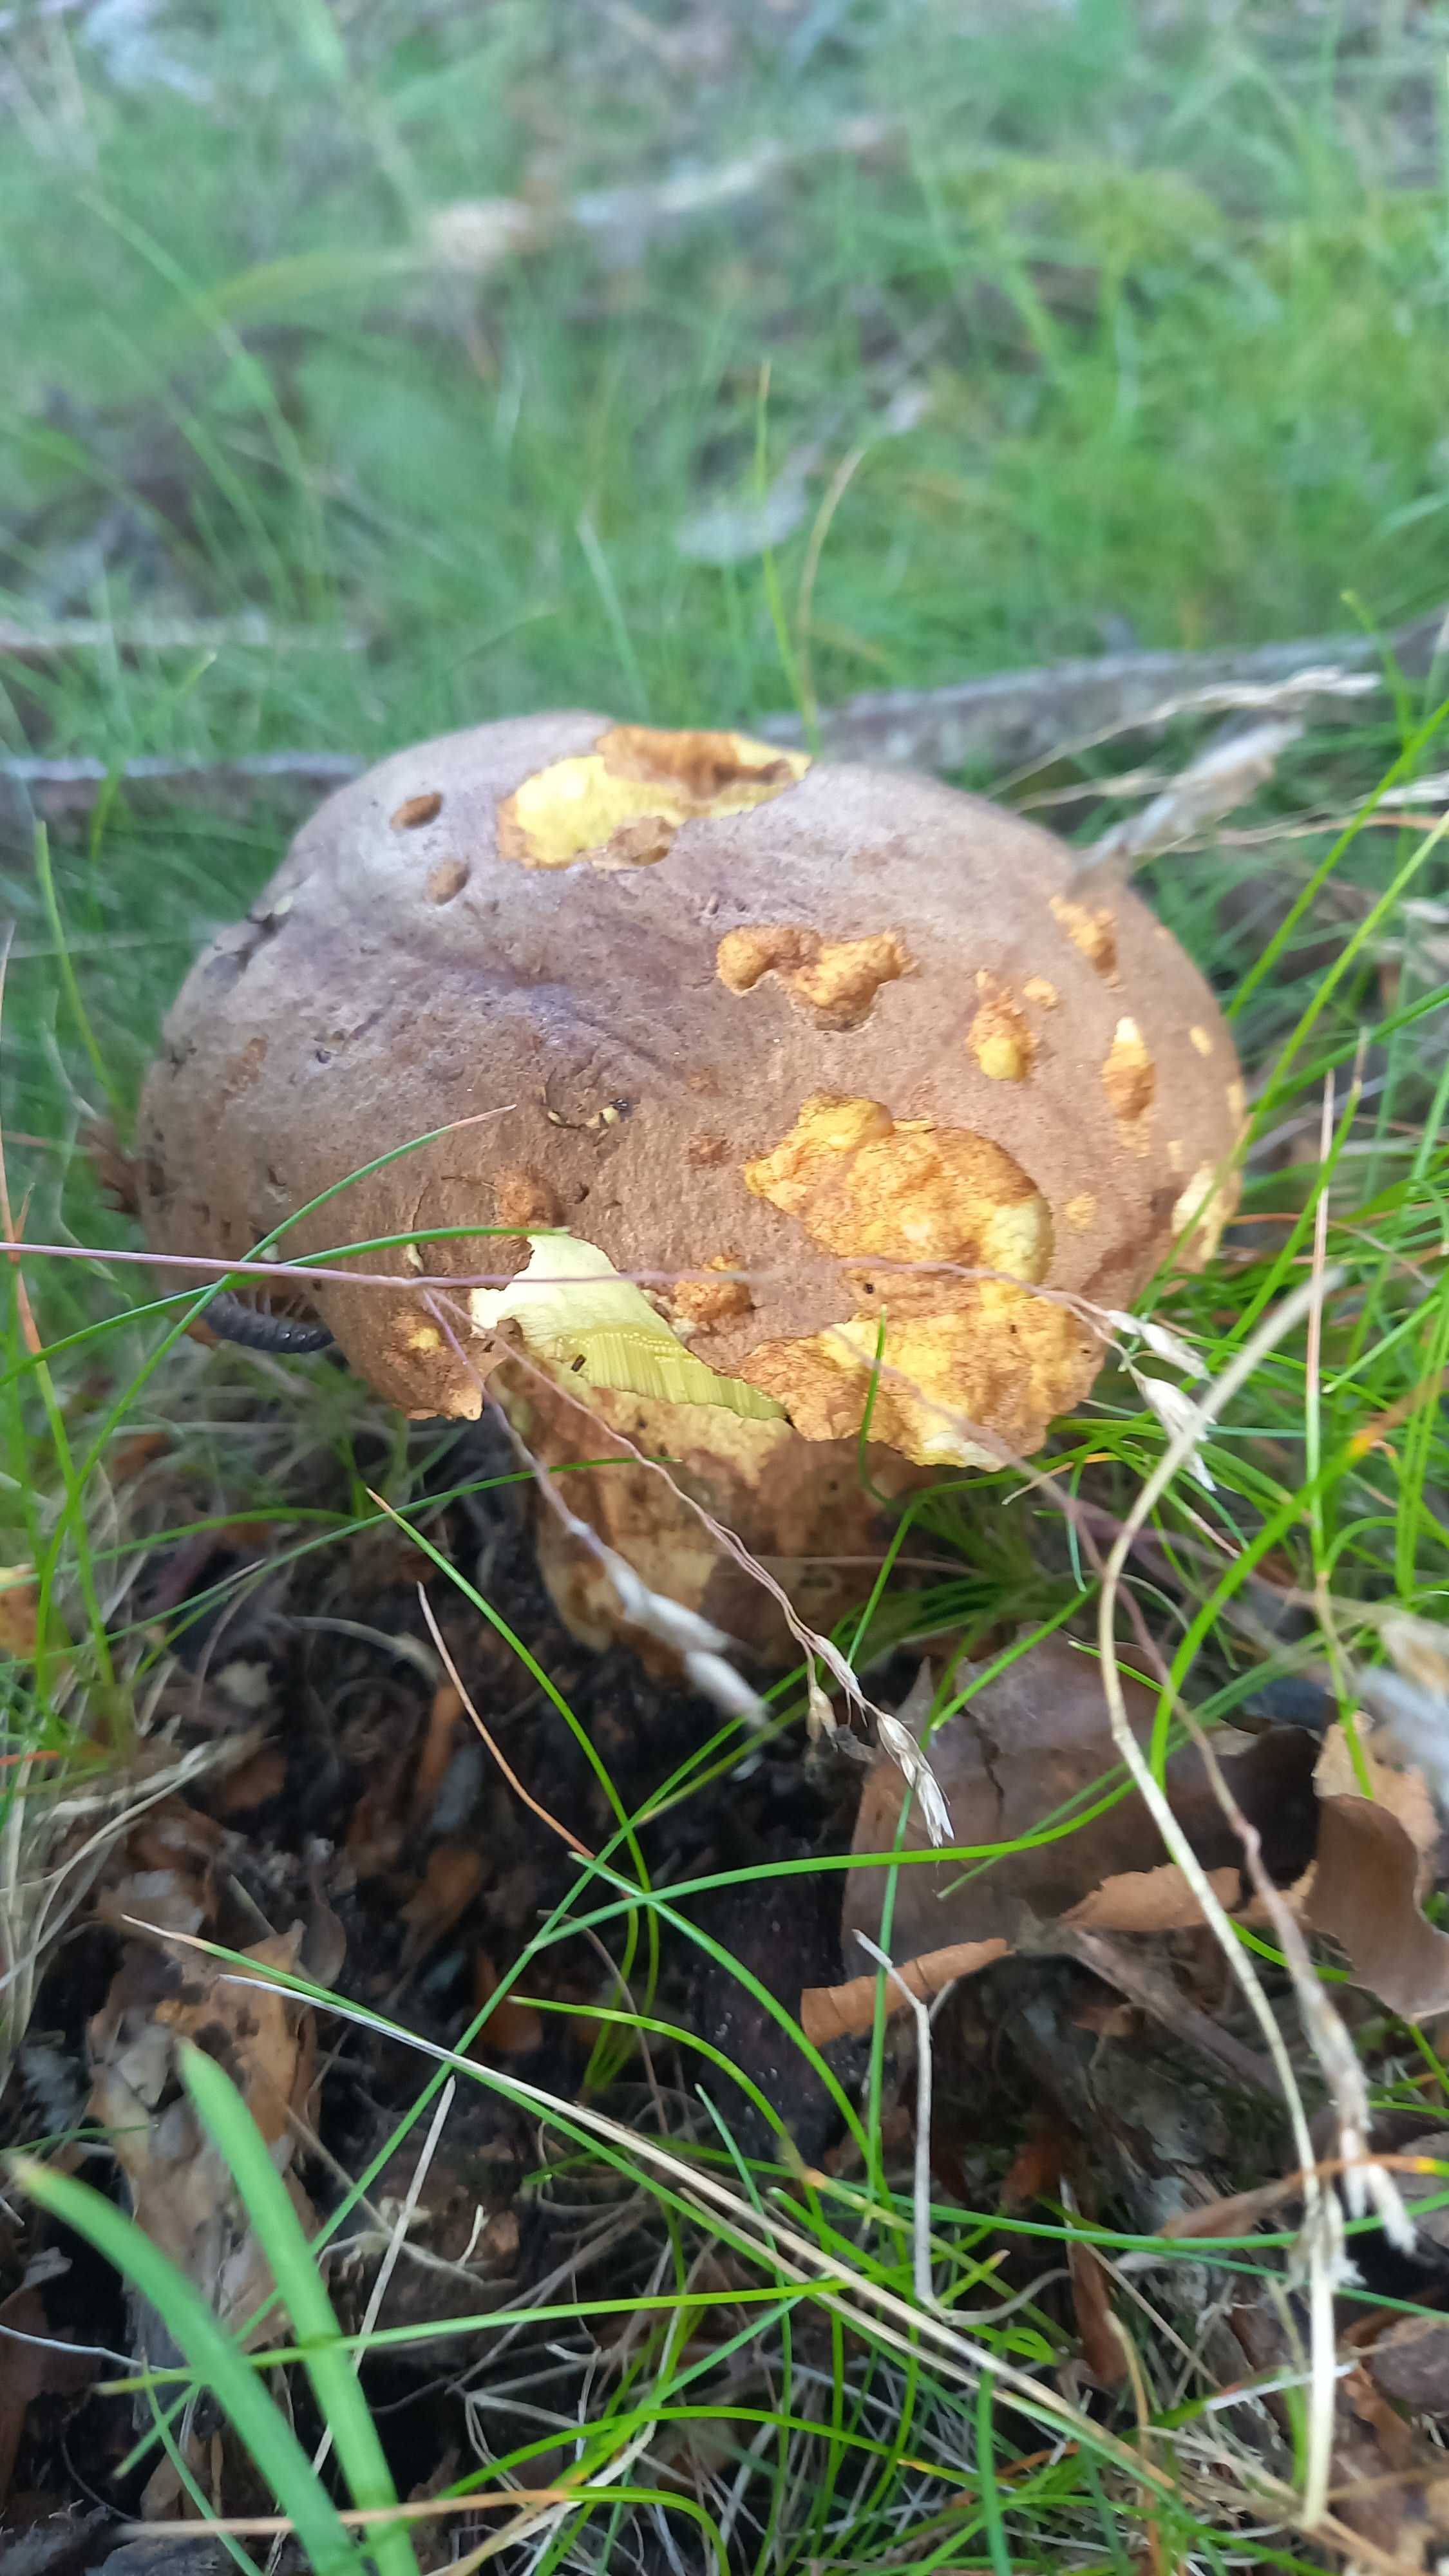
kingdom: Fungi
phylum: Basidiomycota
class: Agaricomycetes
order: Boletales
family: Boletaceae
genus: Butyriboletus
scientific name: Butyriboletus appendiculatus
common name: tenstokket rørhat
